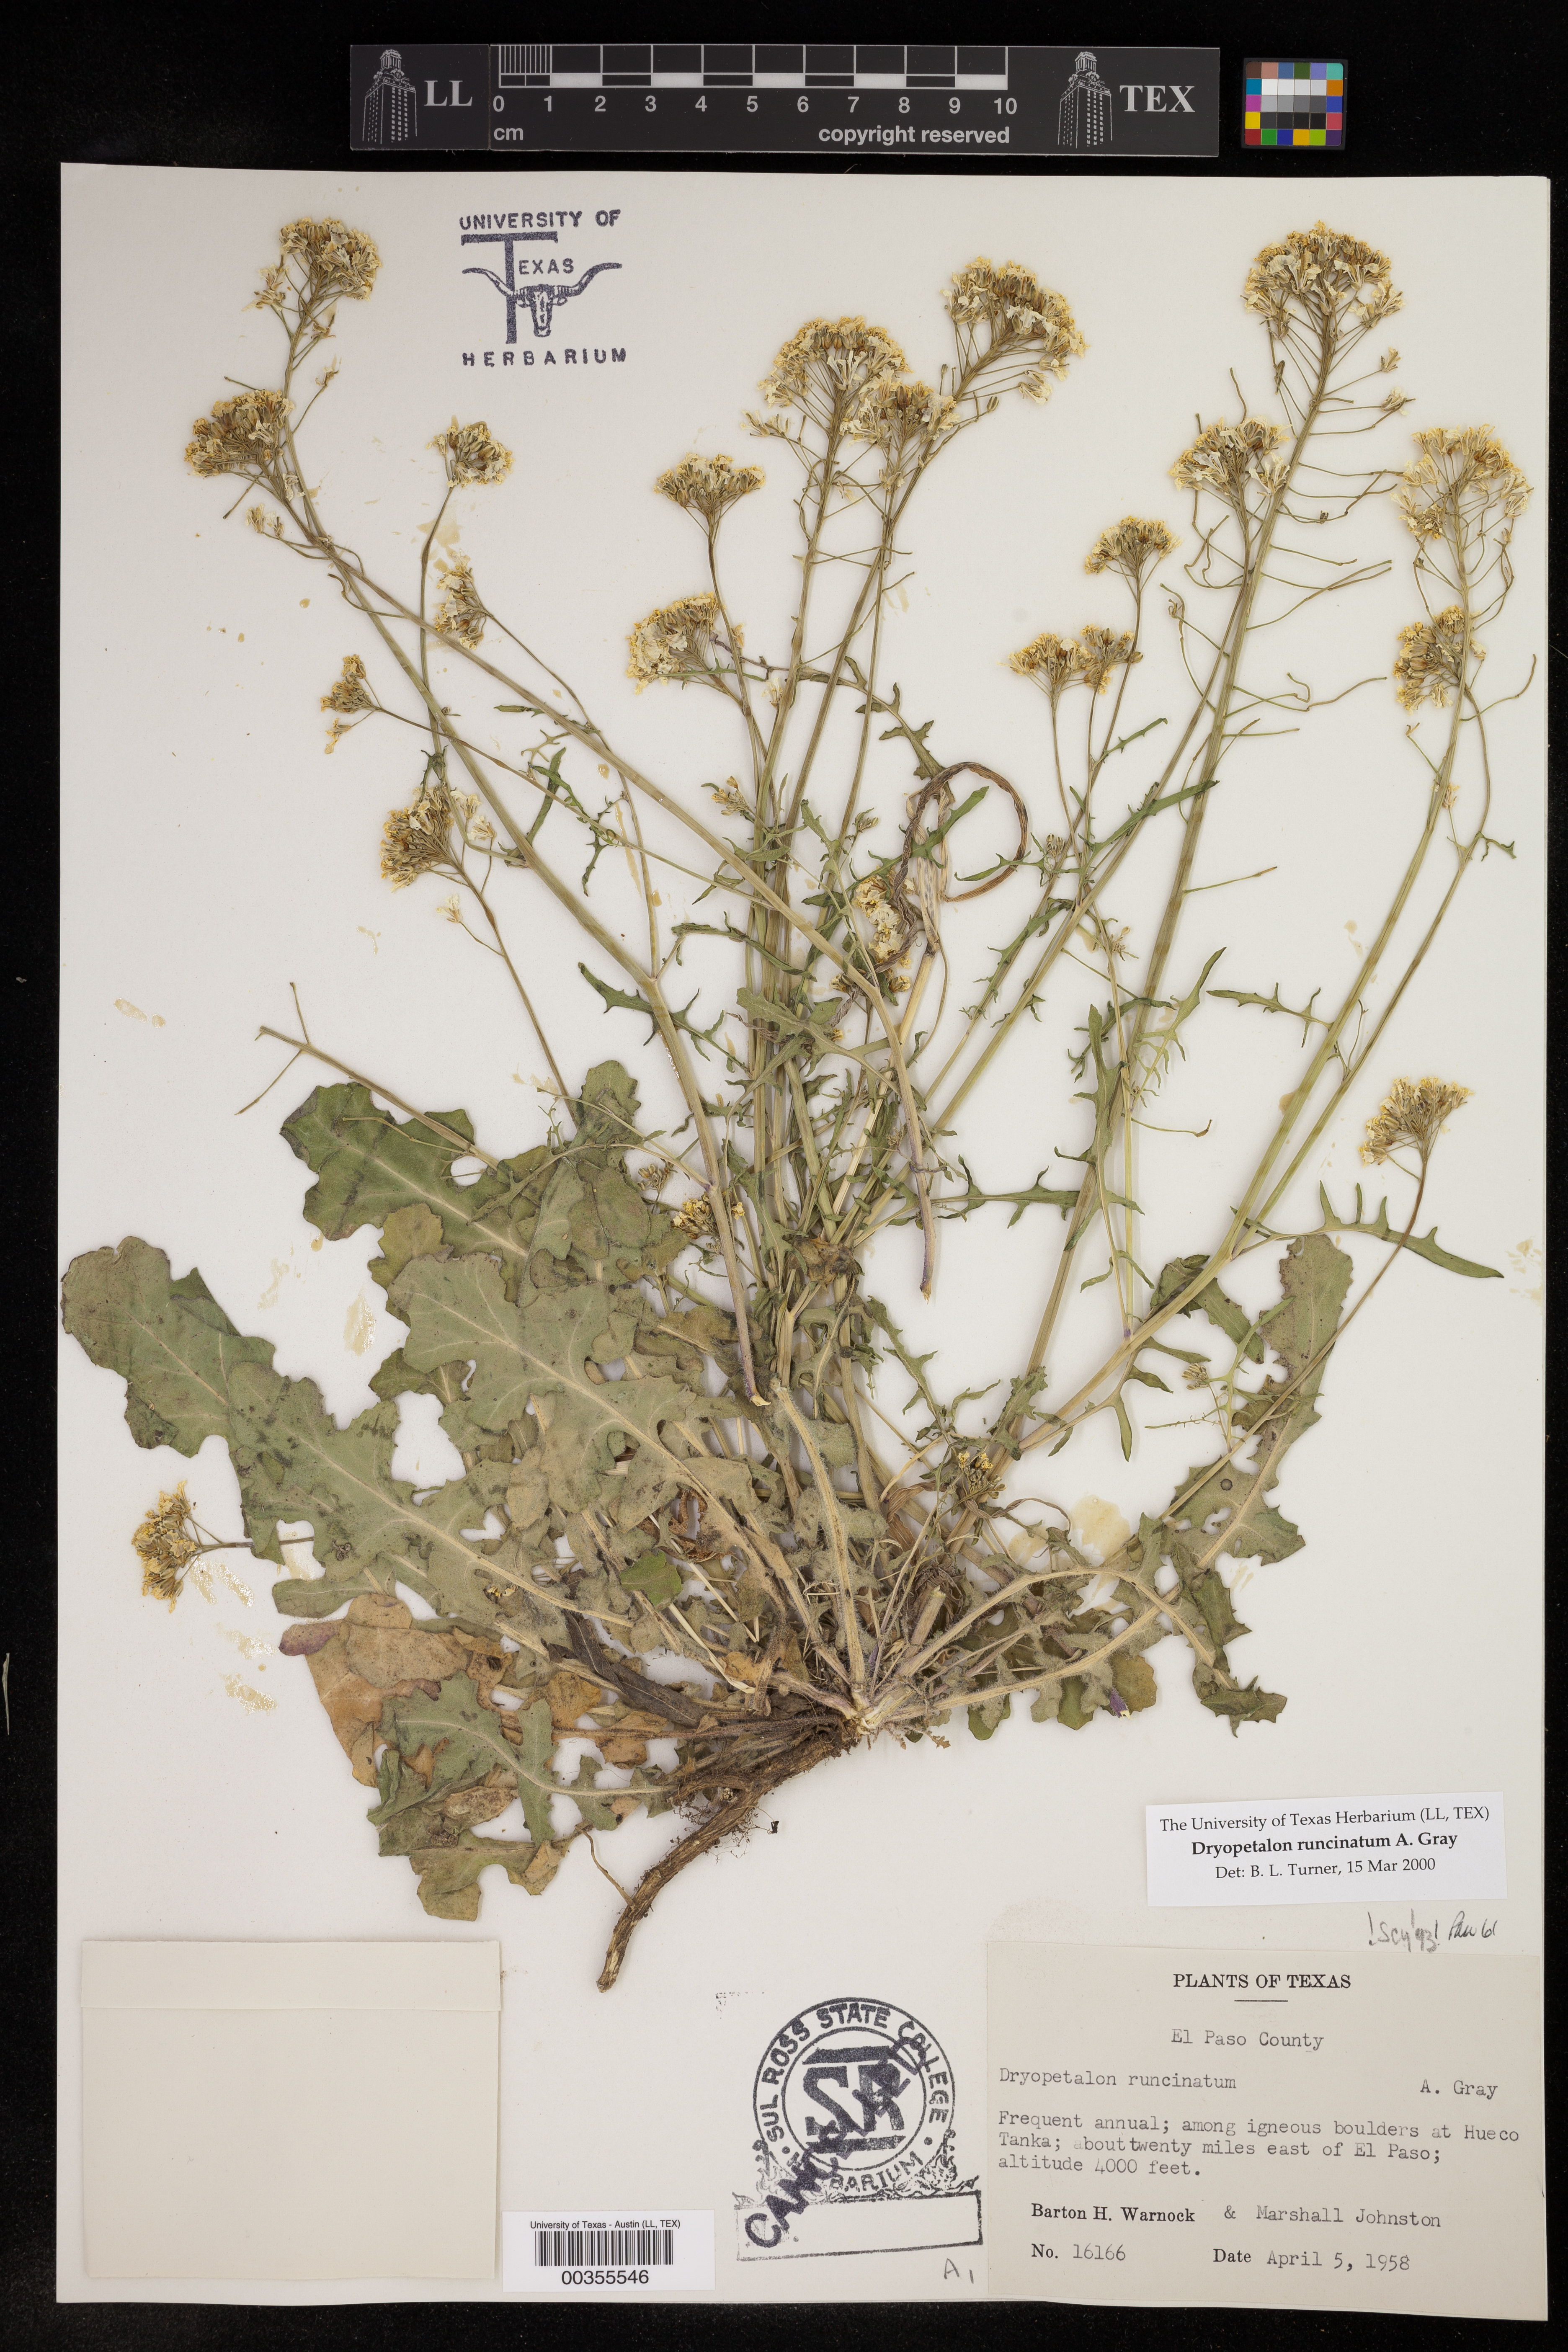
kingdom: Plantae
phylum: Tracheophyta
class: Magnoliopsida
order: Brassicales
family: Brassicaceae
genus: Dryopetalon
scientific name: Dryopetalon runcinatum
